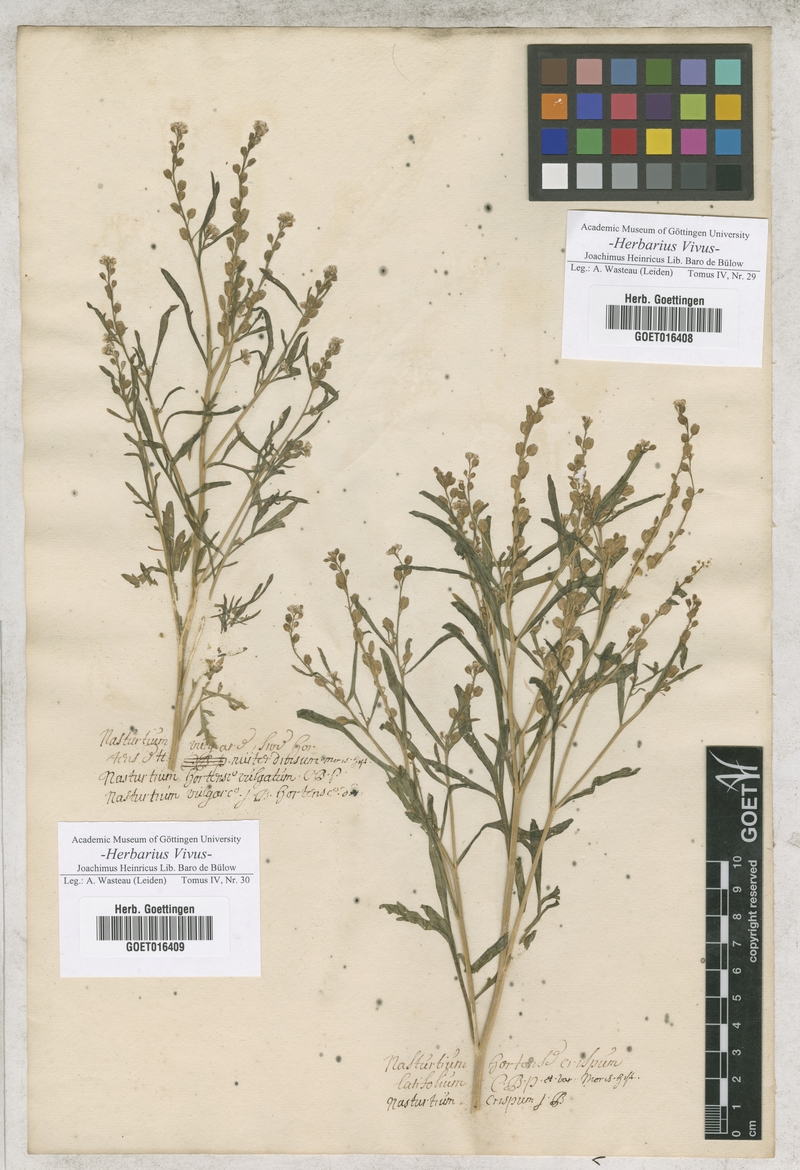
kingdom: Plantae
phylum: Tracheophyta
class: Magnoliopsida
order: Brassicales
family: Brassicaceae
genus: Lepidium
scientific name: Lepidium sativum
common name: Garden cress
